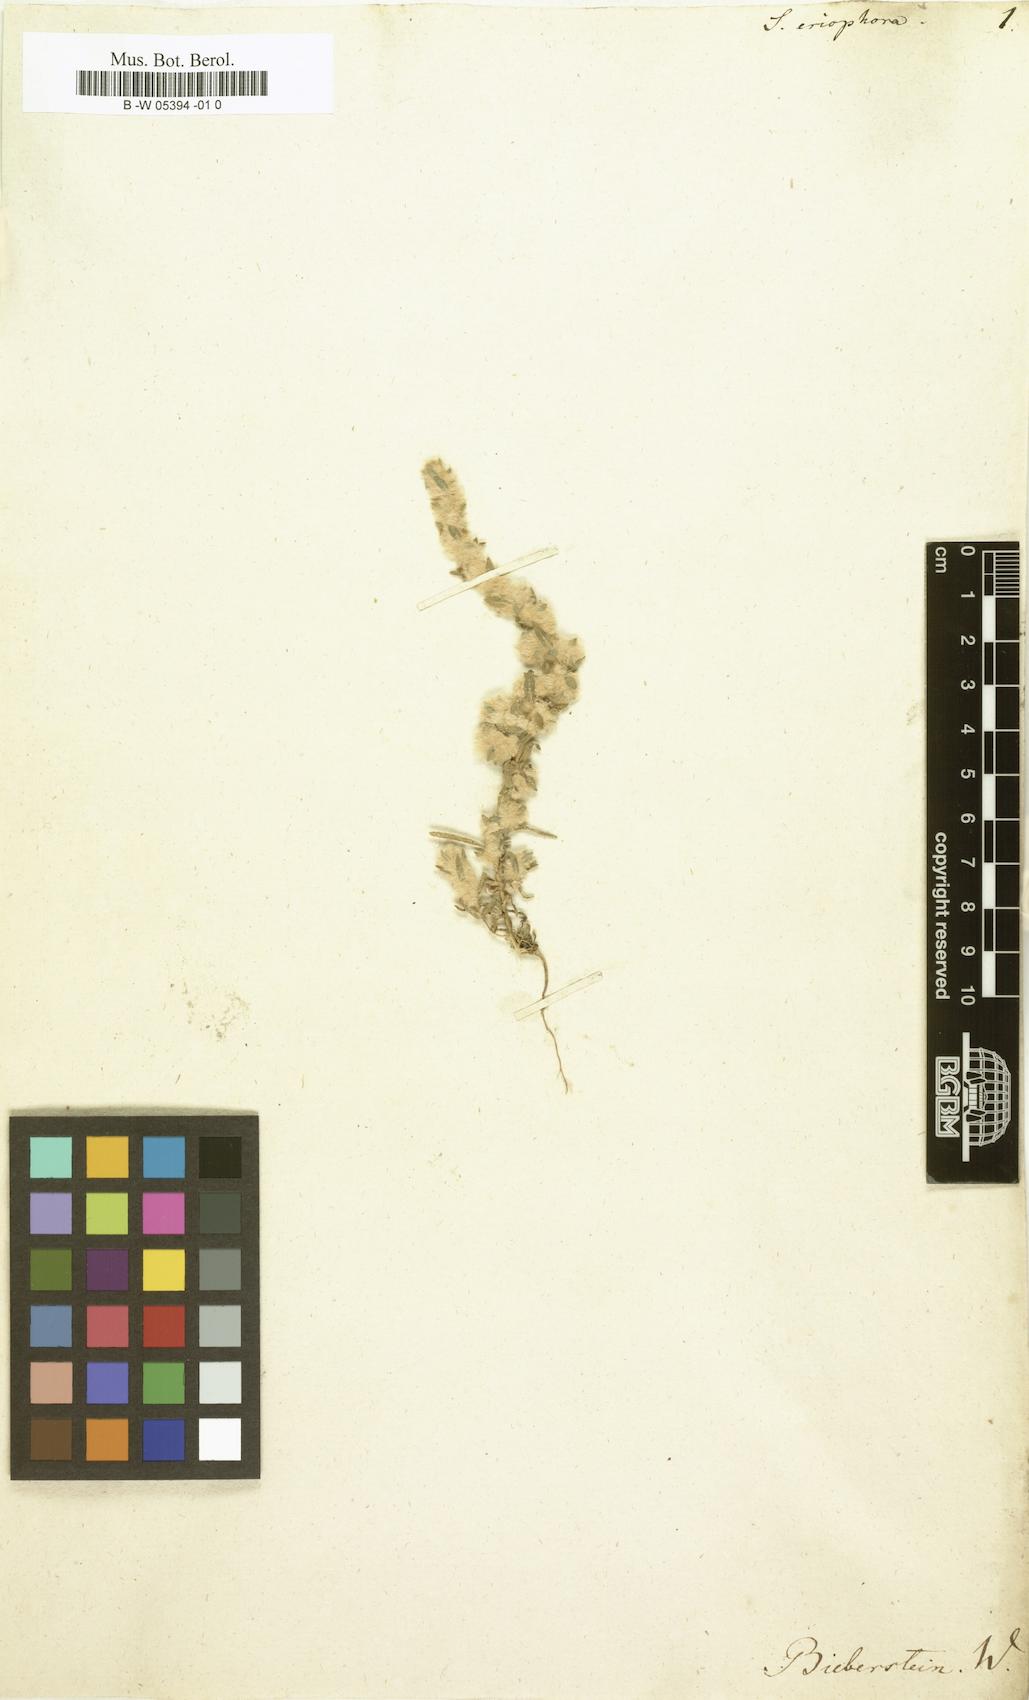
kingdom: Plantae
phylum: Tracheophyta
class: Magnoliopsida
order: Caryophyllales
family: Amaranthaceae
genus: Bassia
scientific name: Bassia eriophora
